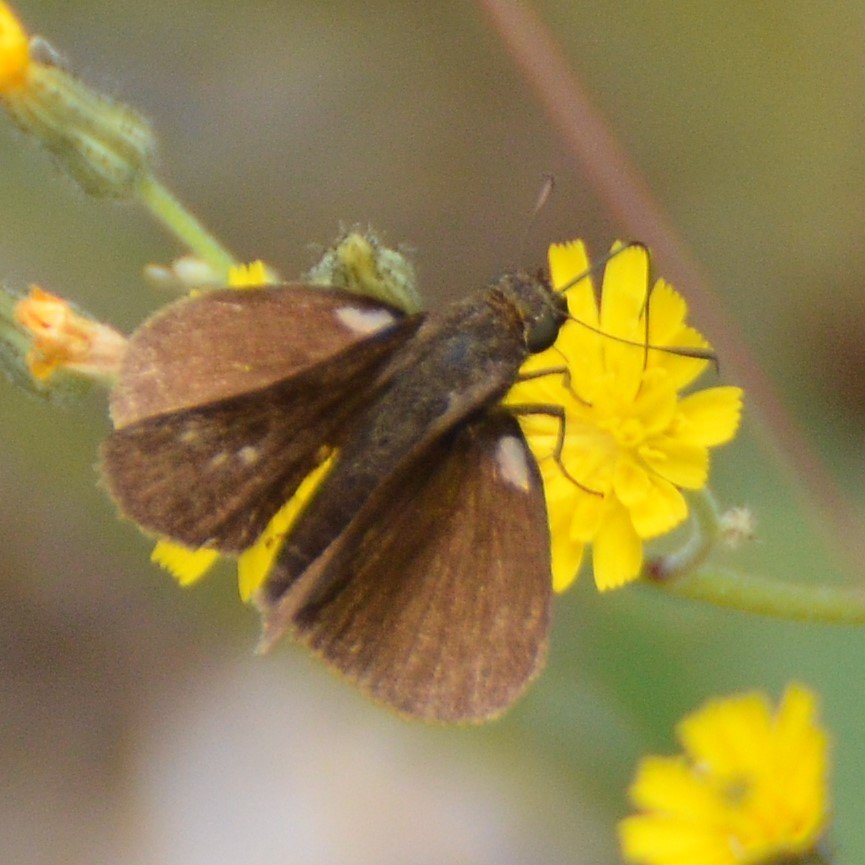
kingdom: Animalia
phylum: Arthropoda
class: Insecta
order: Lepidoptera
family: Hesperiidae
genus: Euphyes
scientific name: Euphyes vestris
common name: Dun Skipper
